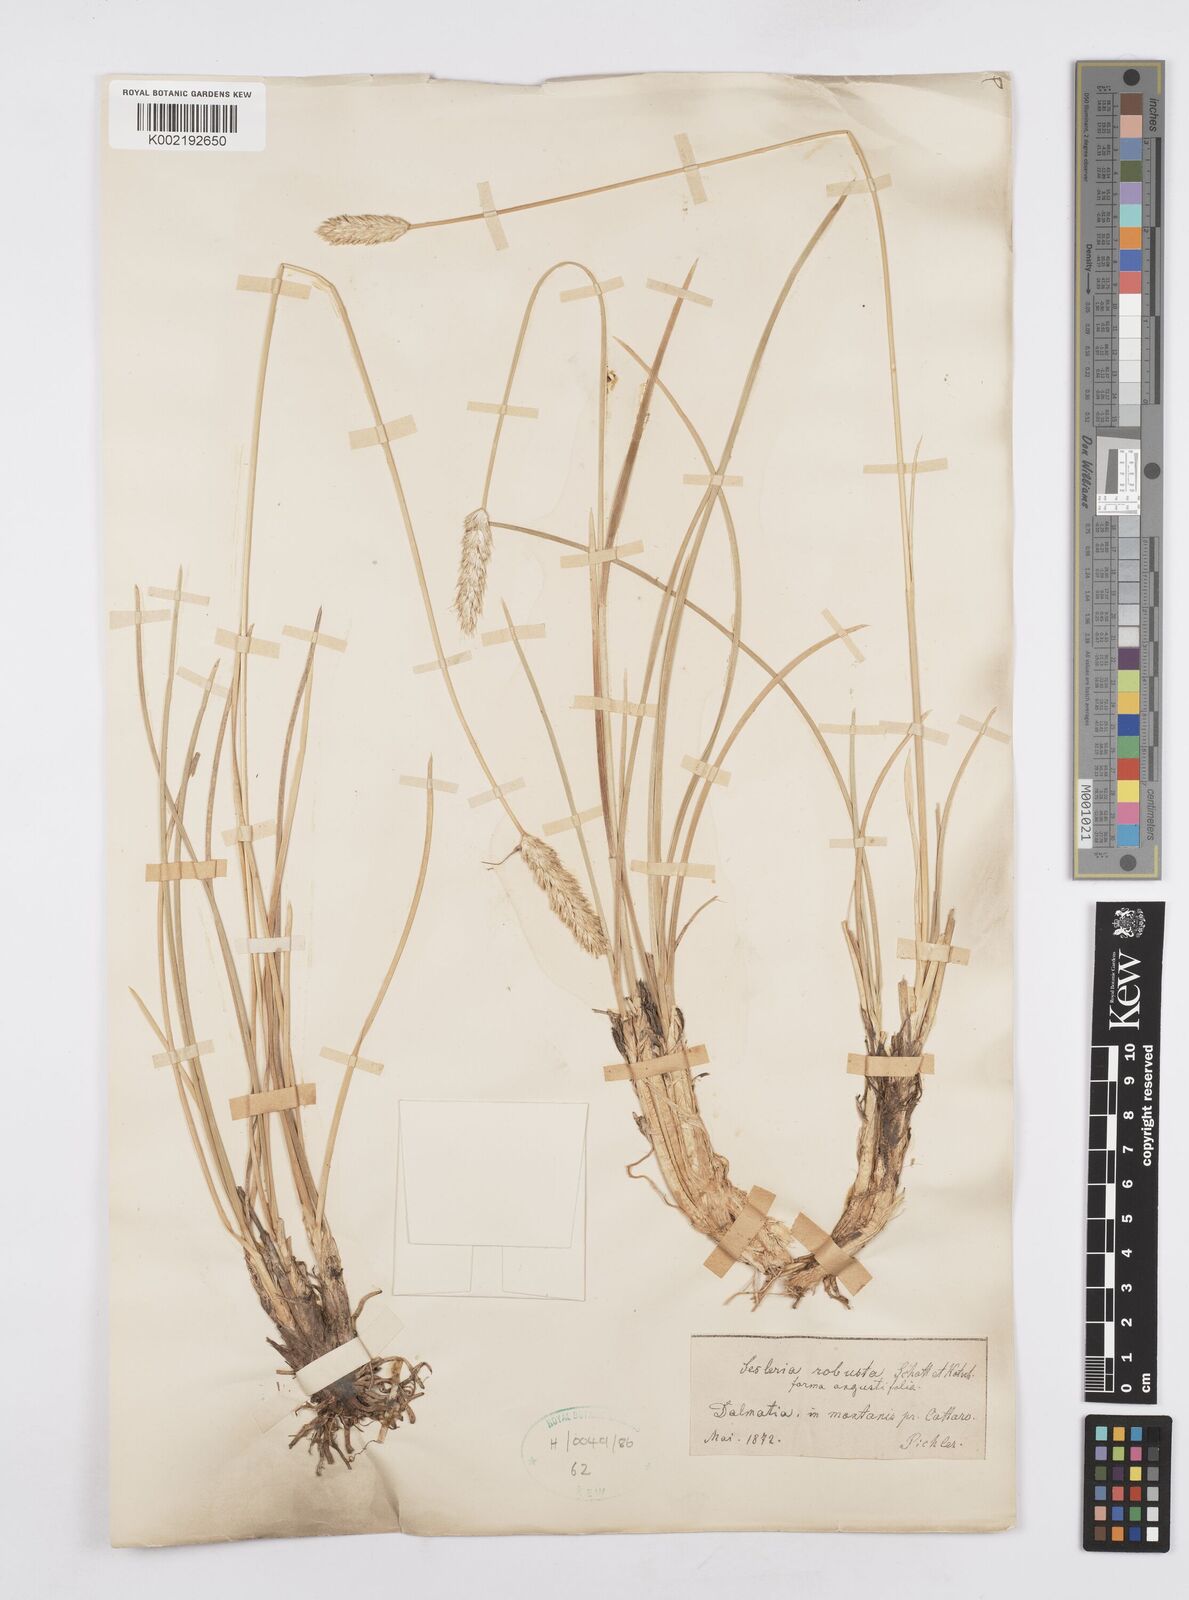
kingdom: Plantae
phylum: Tracheophyta
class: Liliopsida
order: Poales
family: Poaceae
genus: Sesleria
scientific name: Sesleria robusta
